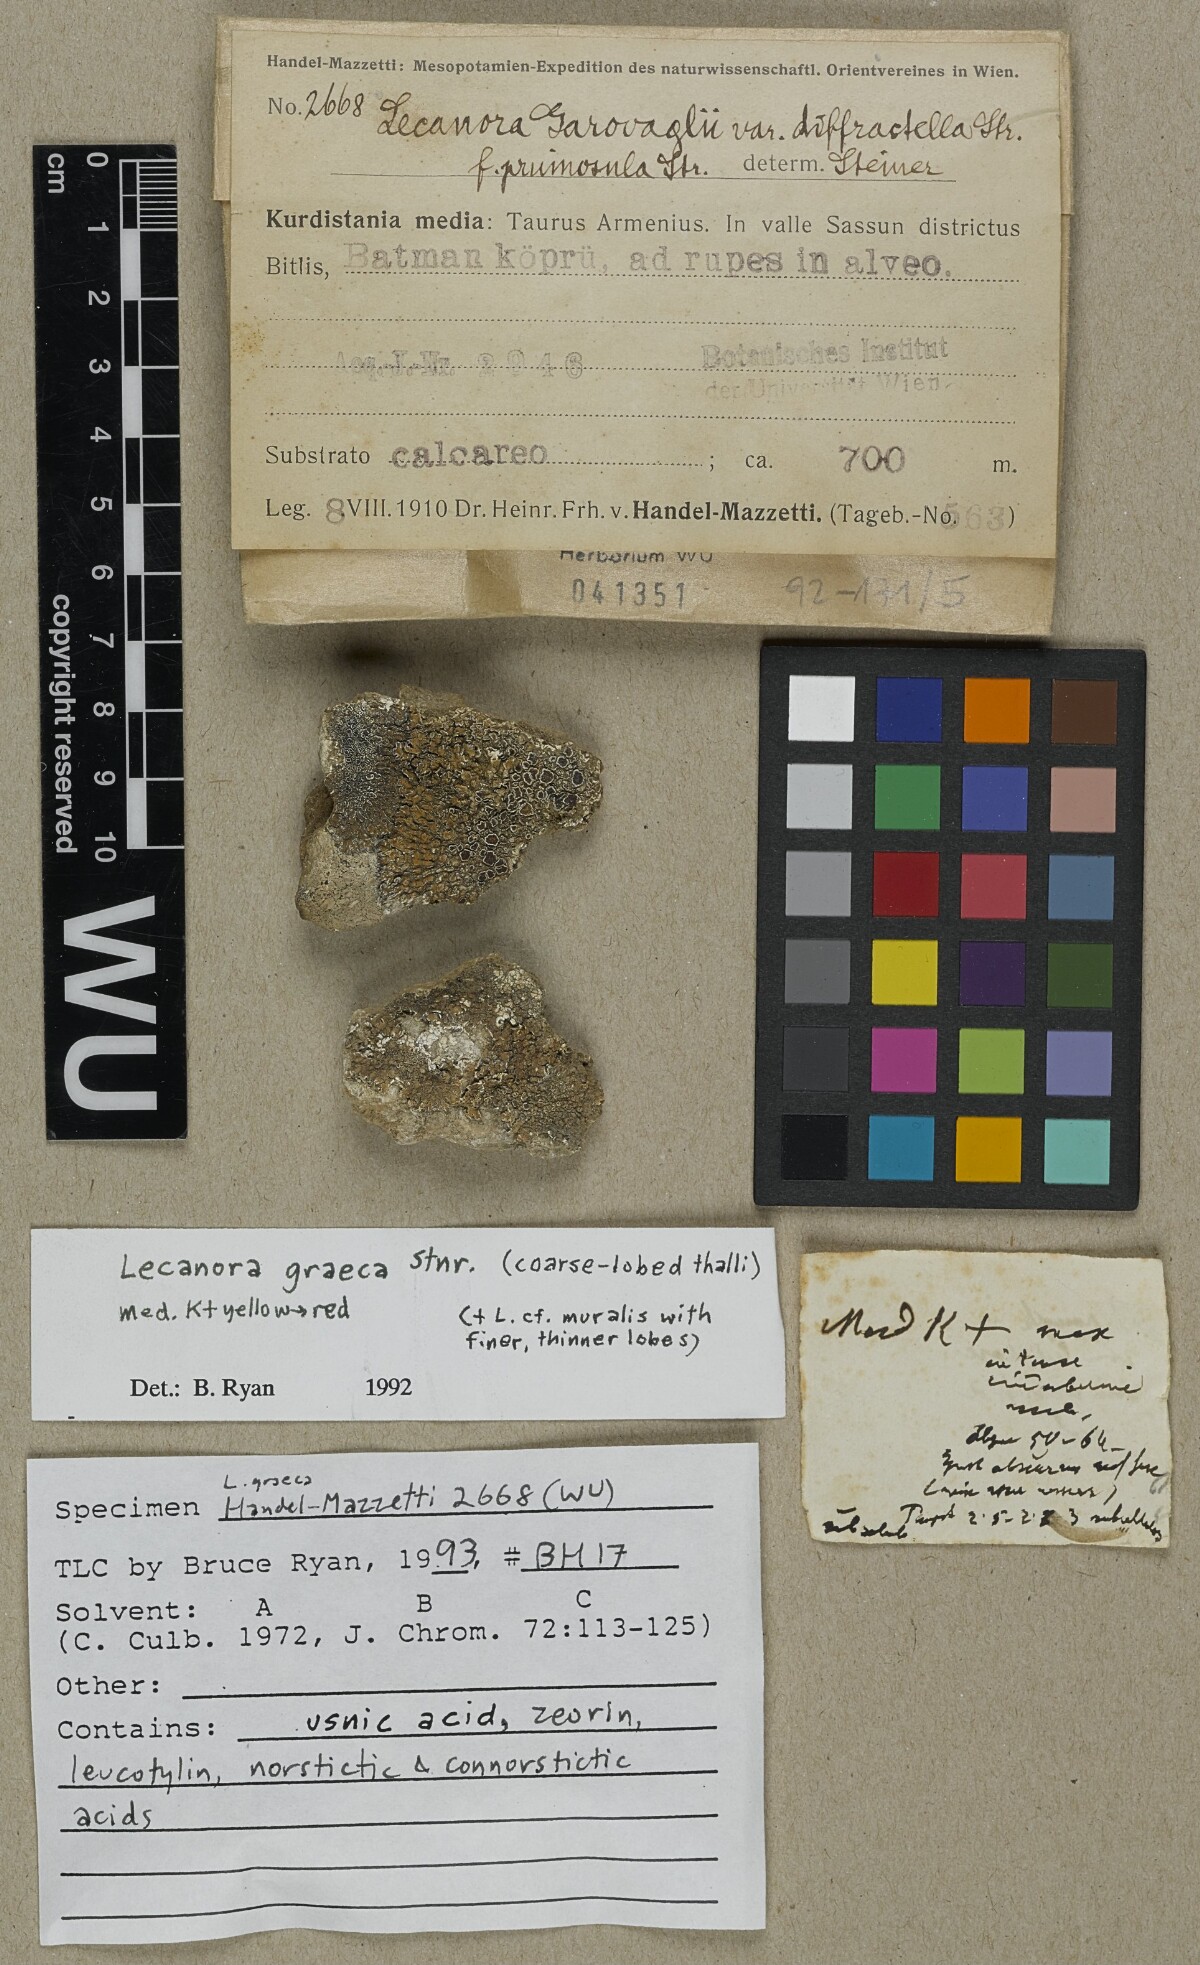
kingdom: Fungi
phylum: Ascomycota
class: Lecanoromycetes
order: Lecanorales
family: Lecanoraceae
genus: Protoparmeliopsis
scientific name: Protoparmeliopsis graeca
